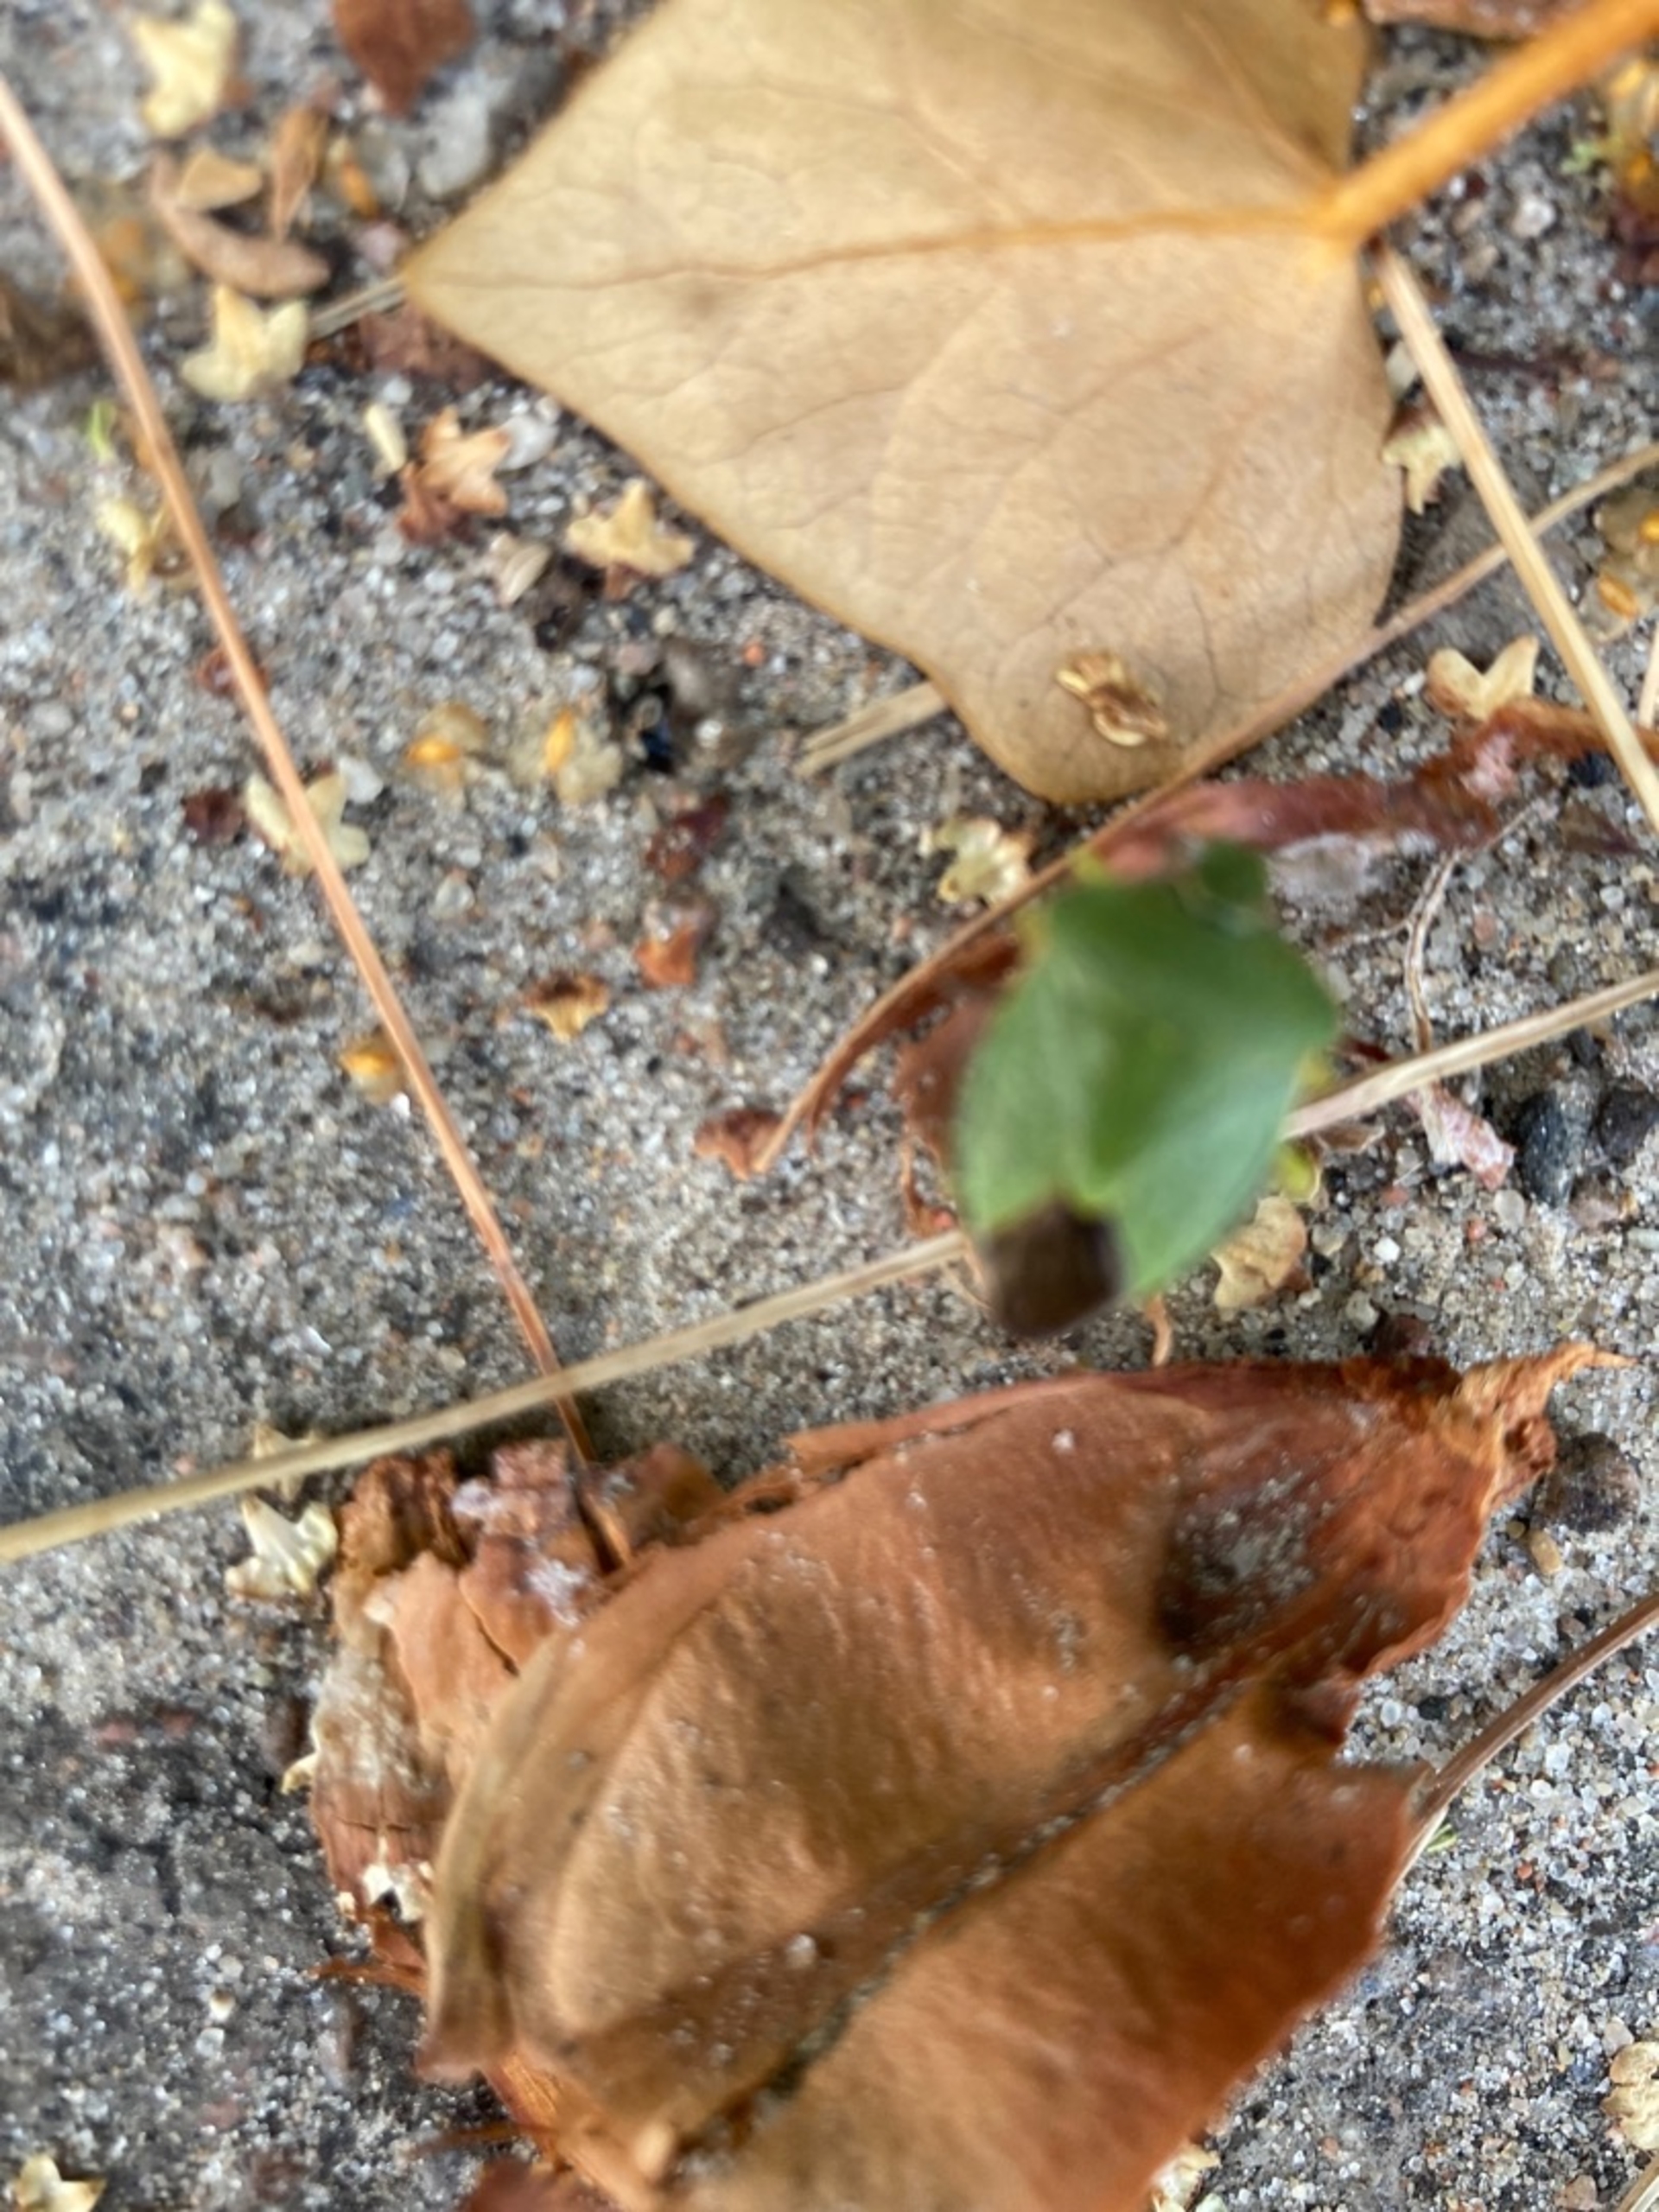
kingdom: Animalia
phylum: Arthropoda
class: Insecta
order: Hemiptera
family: Pentatomidae
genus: Palomena
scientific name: Palomena prasina
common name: Grøn bredtæge
